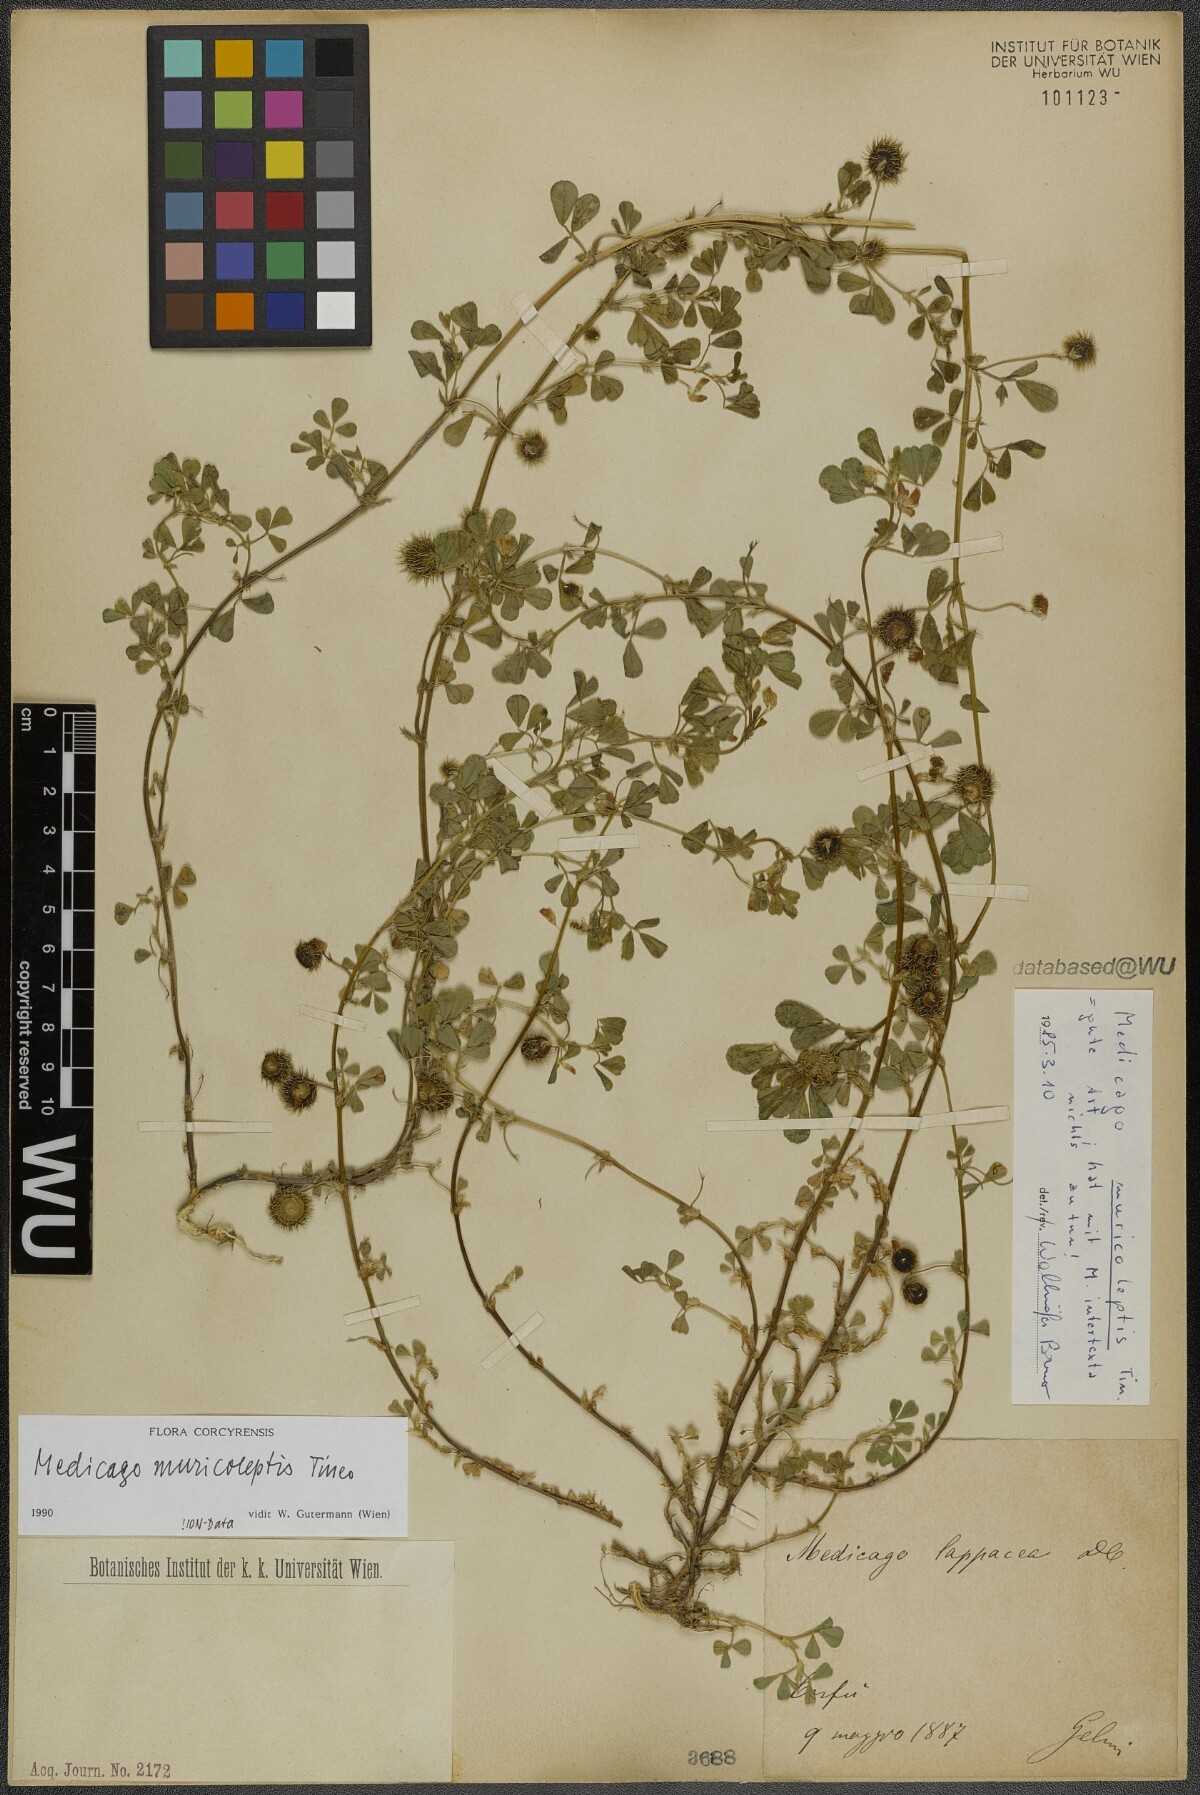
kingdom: Plantae
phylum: Tracheophyta
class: Magnoliopsida
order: Fabales
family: Fabaceae
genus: Medicago
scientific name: Medicago muricoleptis
